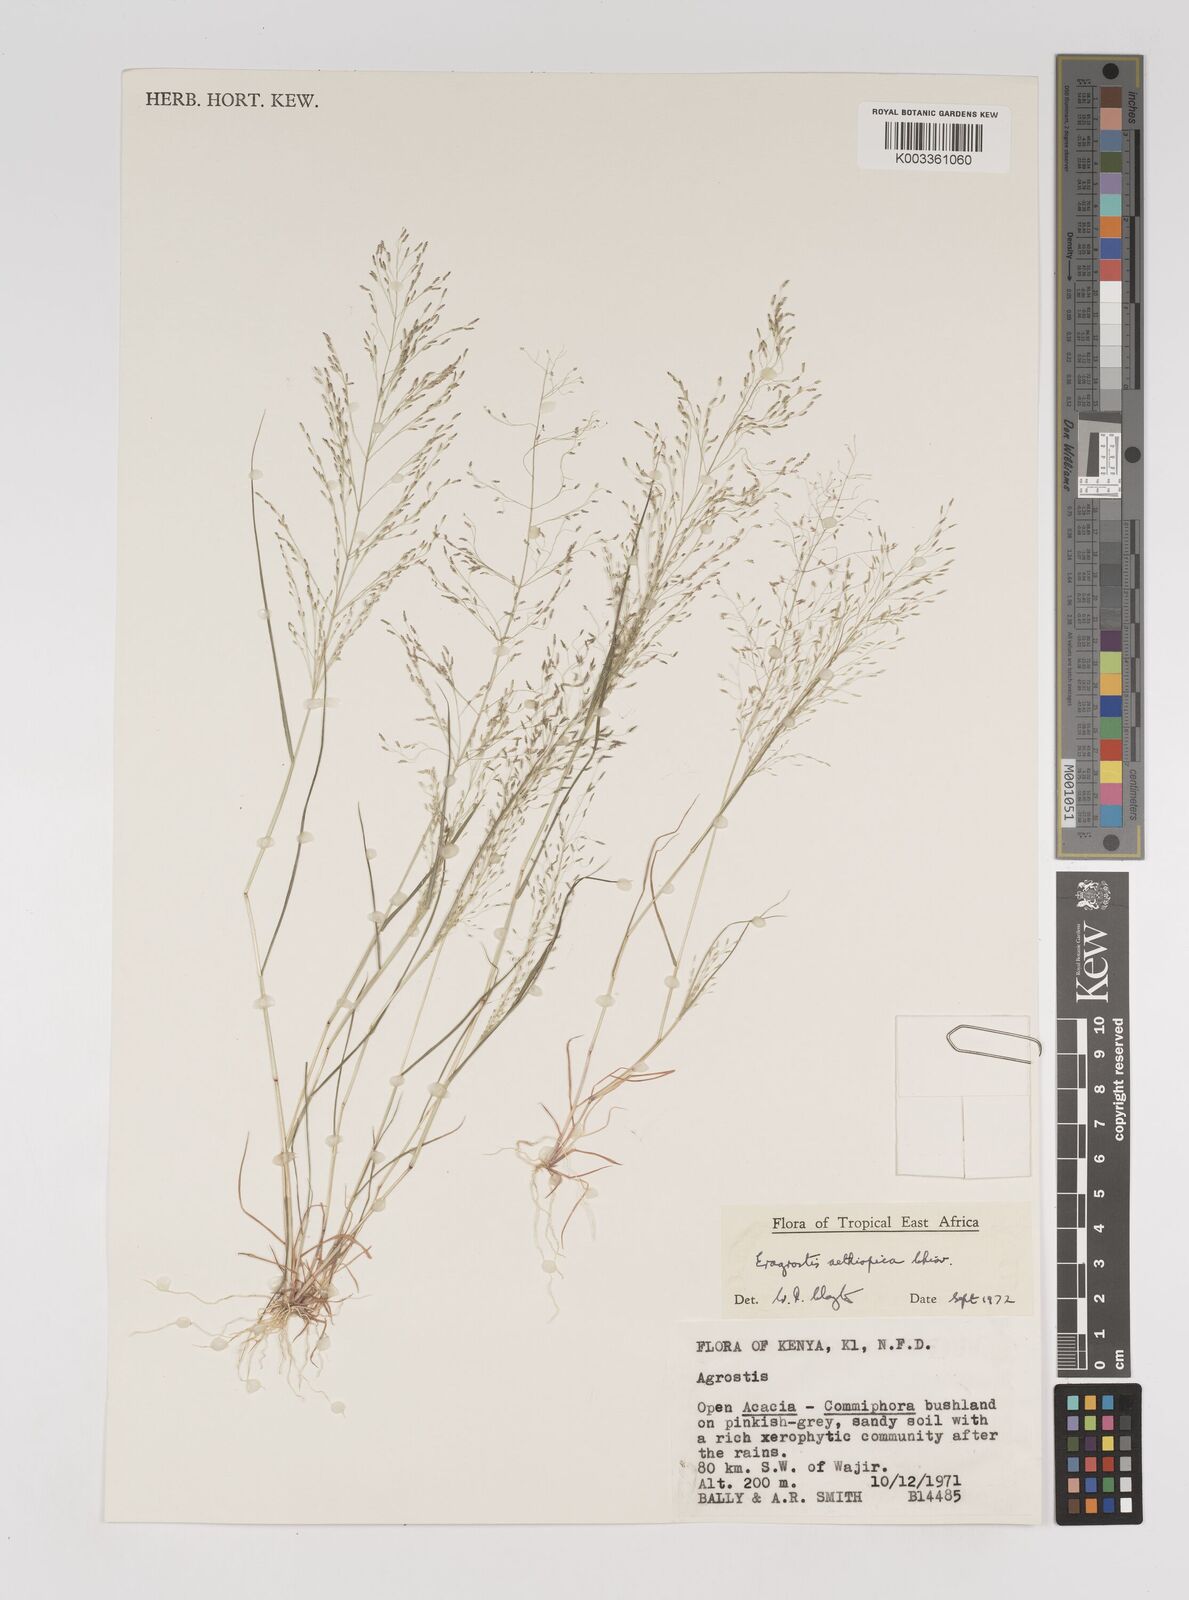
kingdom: Plantae
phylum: Tracheophyta
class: Liliopsida
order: Poales
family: Poaceae
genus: Eragrostis
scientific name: Eragrostis aethiopica
